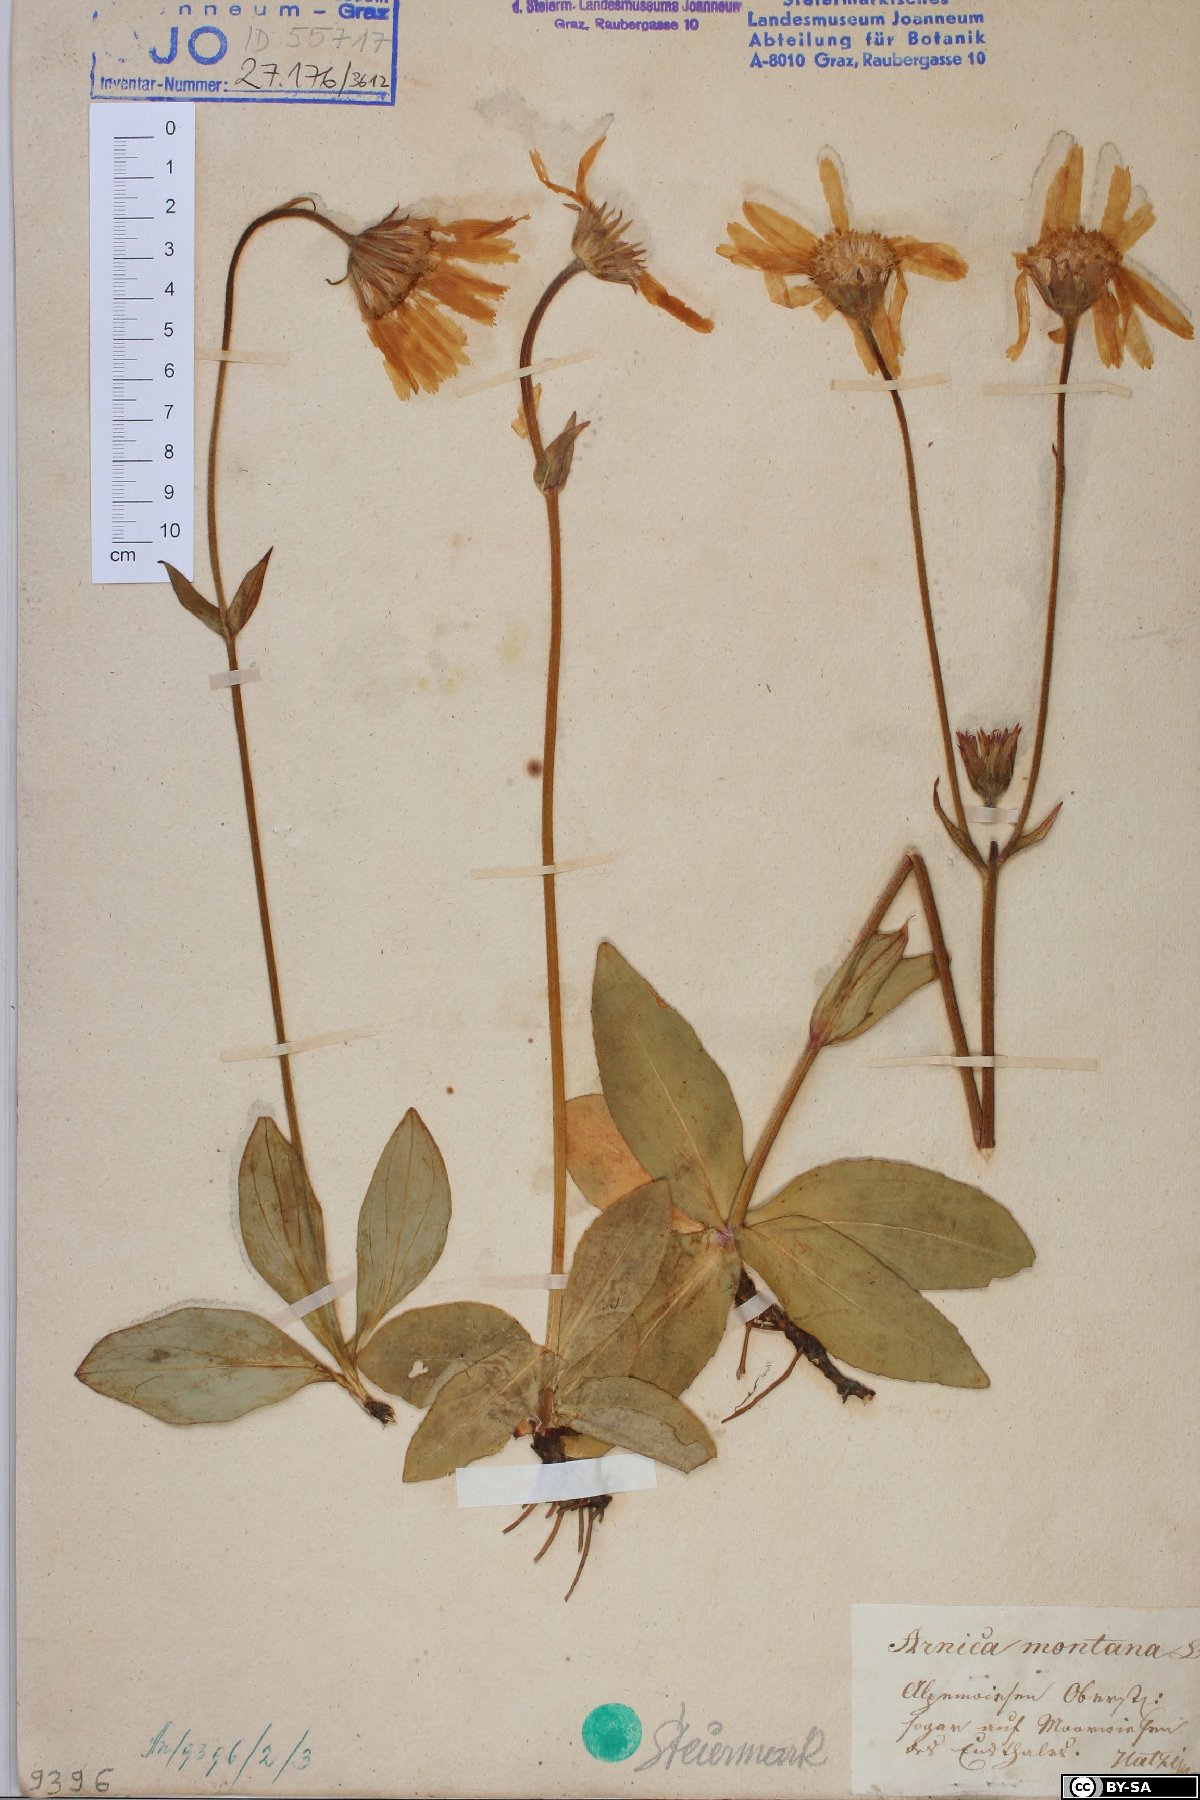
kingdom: Plantae
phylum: Tracheophyta
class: Magnoliopsida
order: Asterales
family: Asteraceae
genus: Arnica
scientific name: Arnica montana
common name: Leopard's bane
